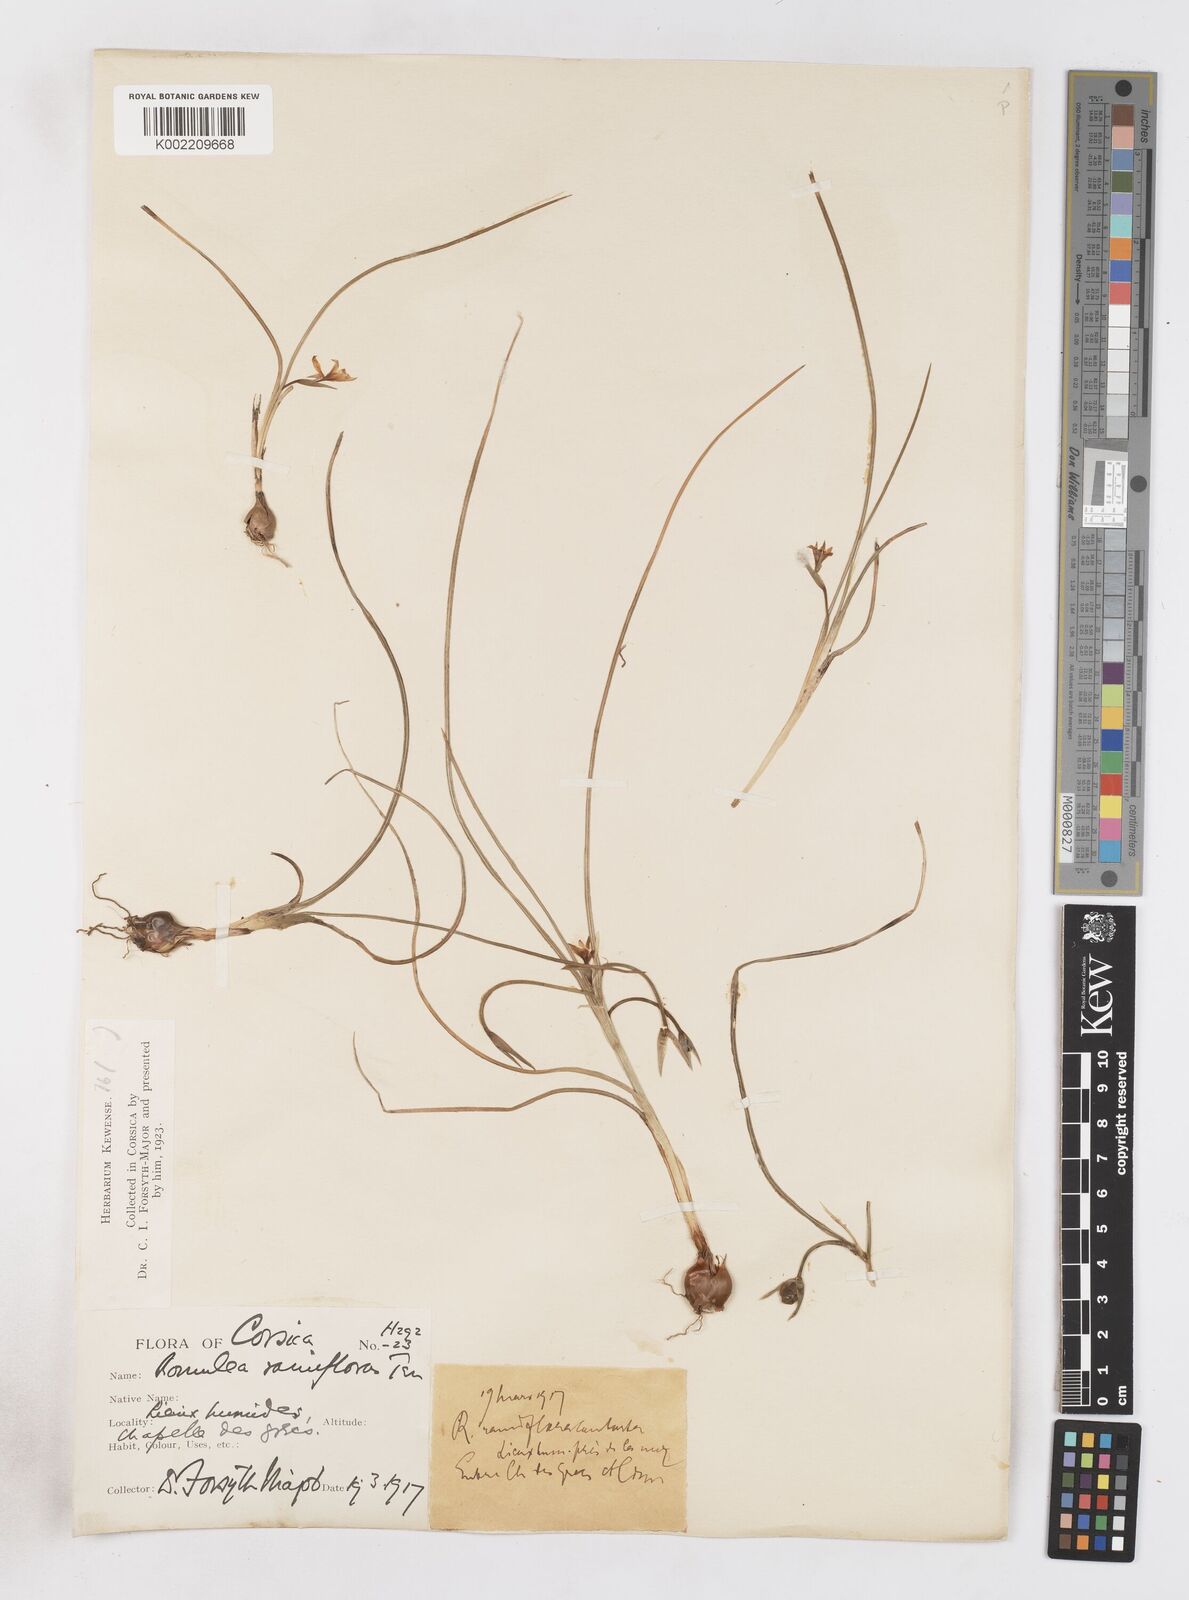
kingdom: Plantae
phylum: Tracheophyta
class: Liliopsida
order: Asparagales
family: Iridaceae
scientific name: Iridaceae
